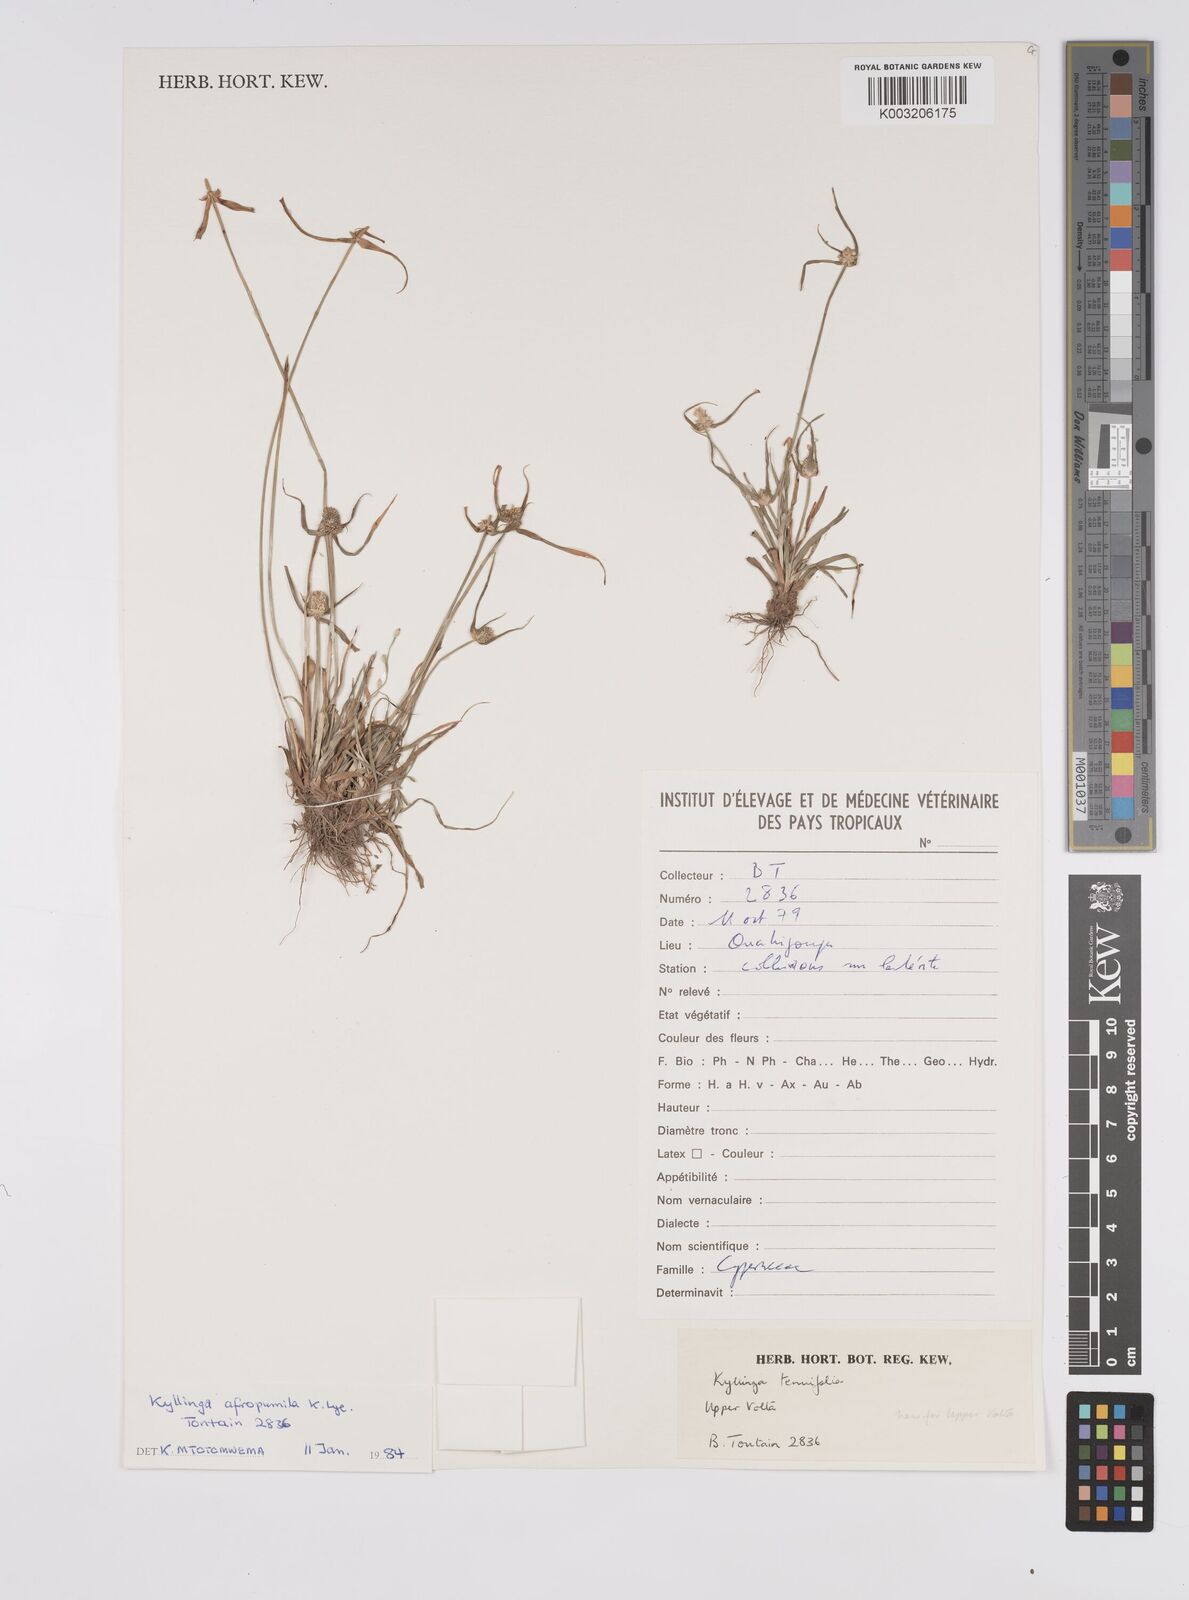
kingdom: Plantae
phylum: Tracheophyta
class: Liliopsida
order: Poales
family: Cyperaceae
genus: Cyperus
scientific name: Cyperus
